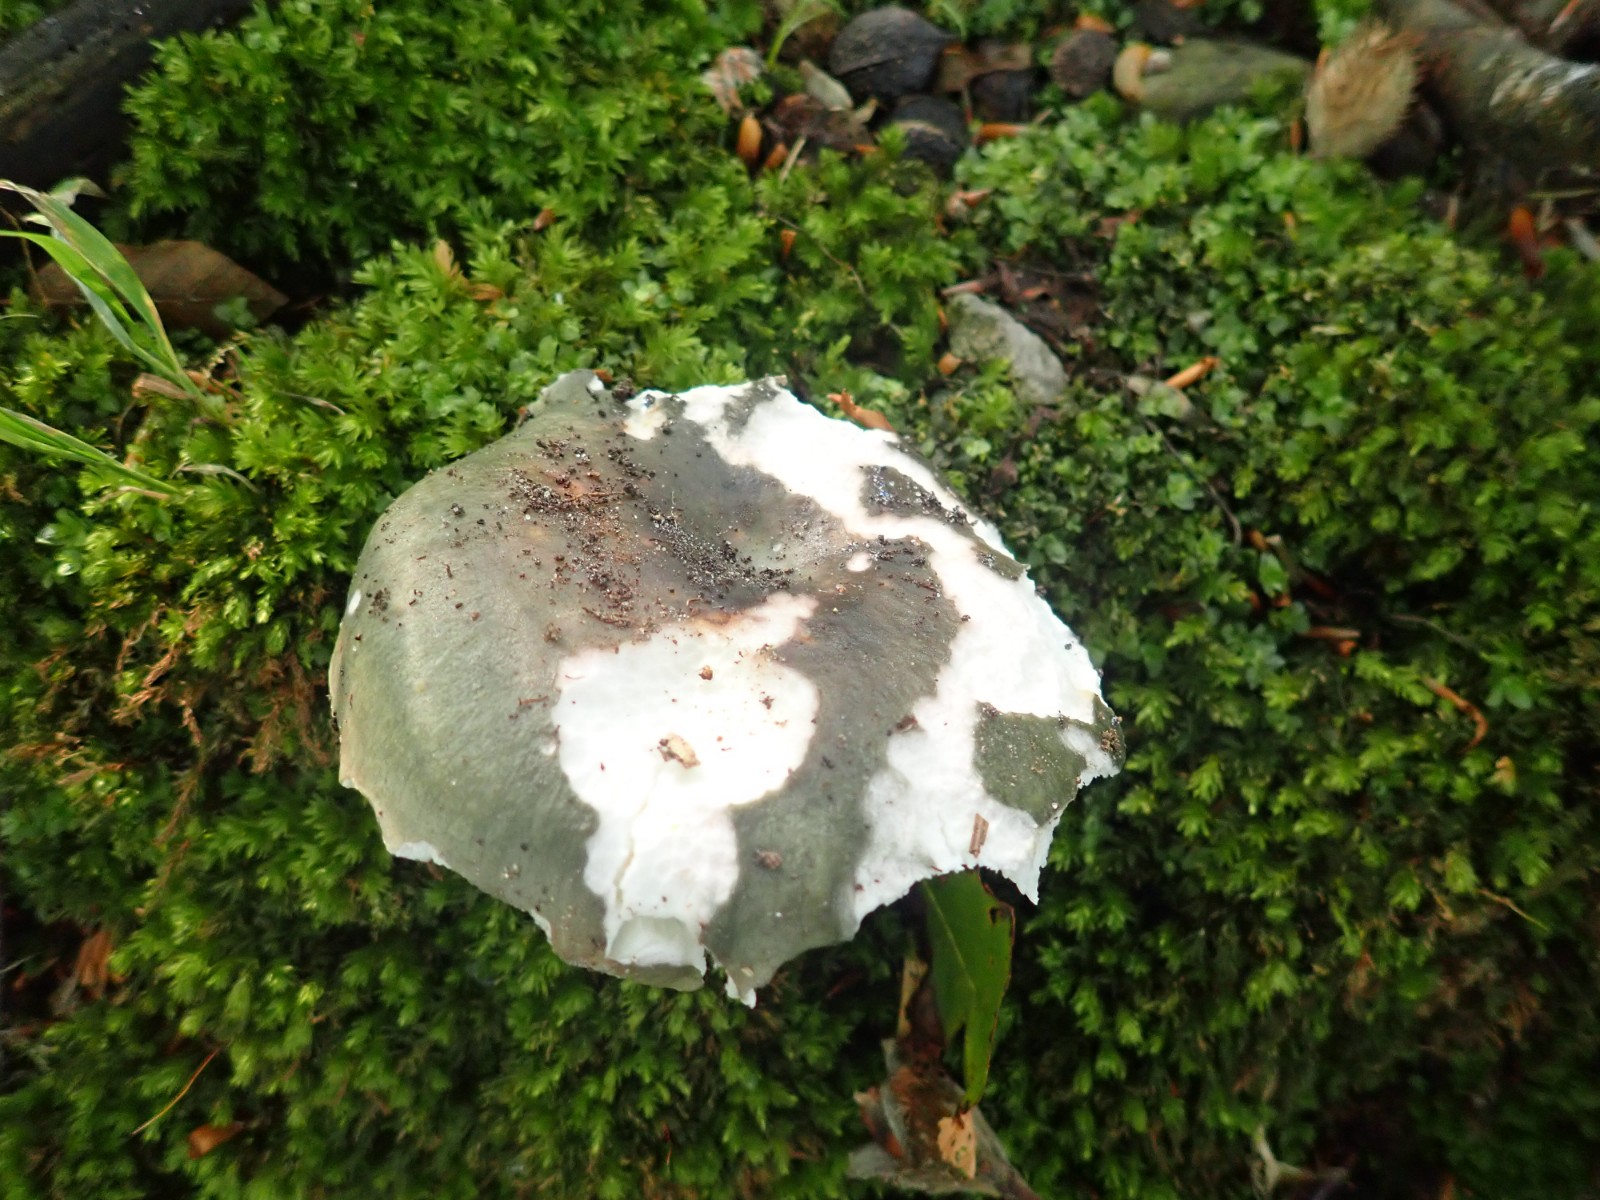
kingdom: Fungi
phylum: Basidiomycota
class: Agaricomycetes
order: Russulales
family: Russulaceae
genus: Russula
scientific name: Russula cyanoxantha
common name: broget skørhat
